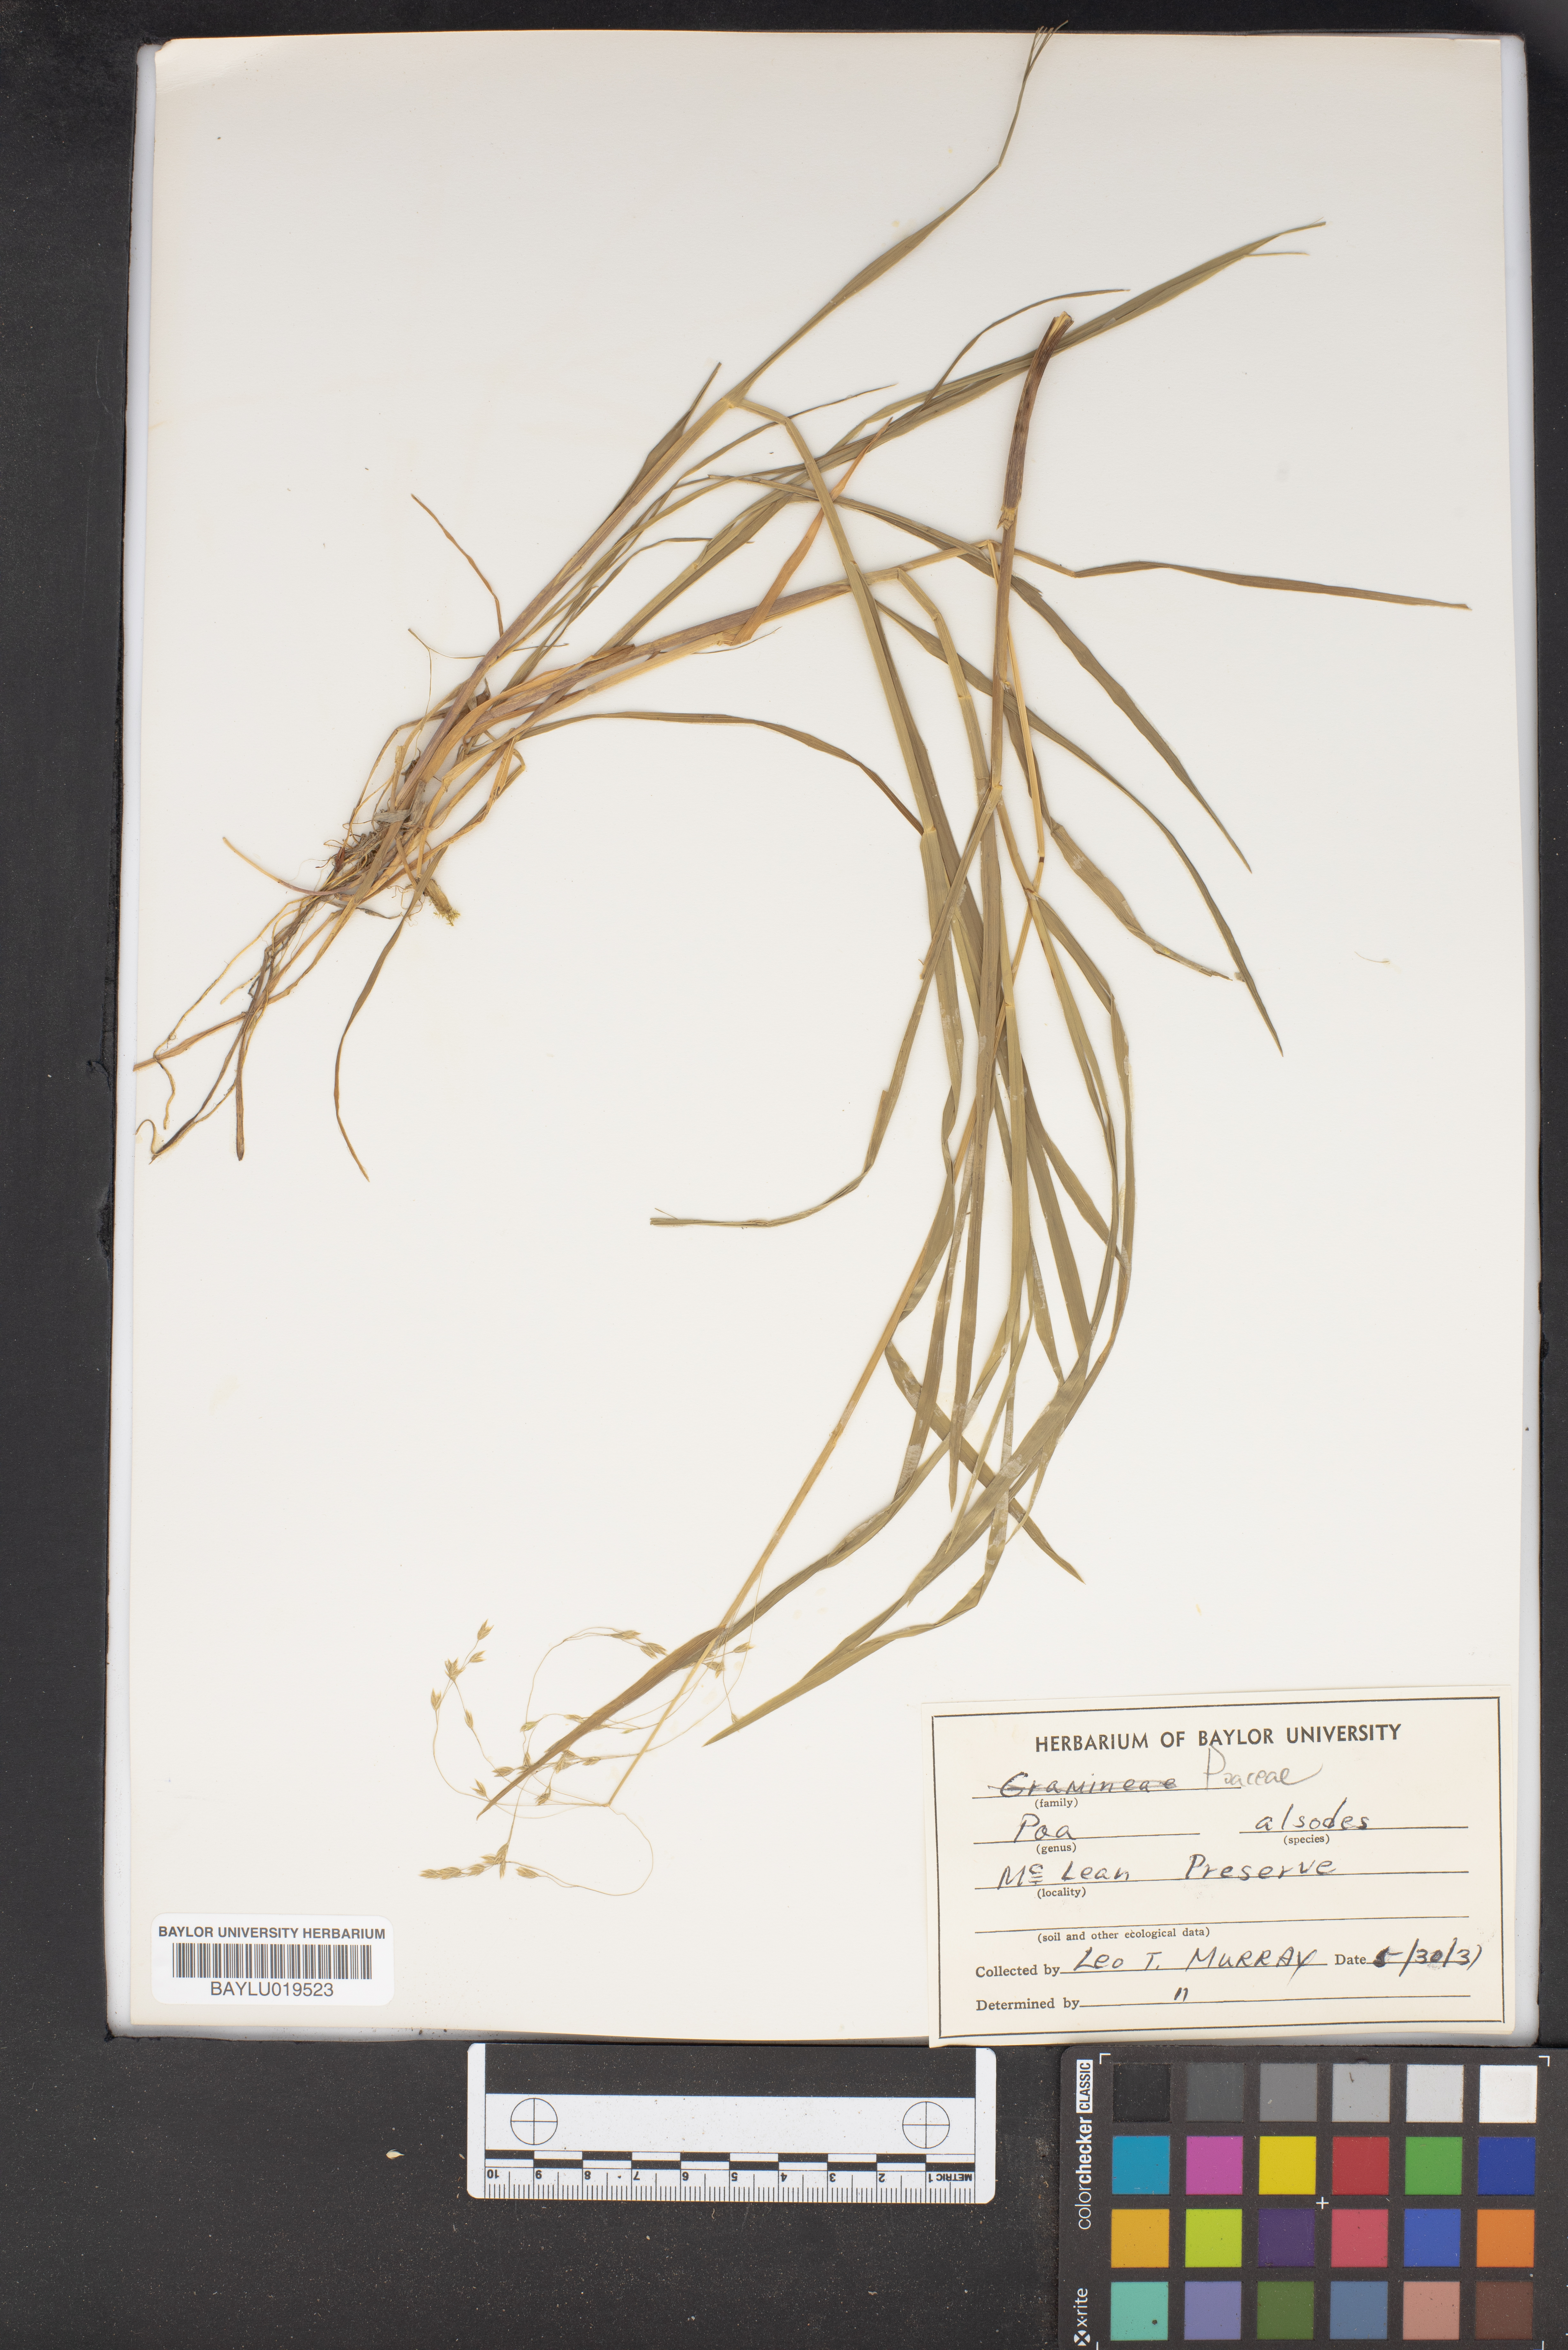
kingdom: Plantae
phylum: Tracheophyta
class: Liliopsida
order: Poales
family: Poaceae
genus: Poa
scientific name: Poa alsodes
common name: Grove bluegrass
